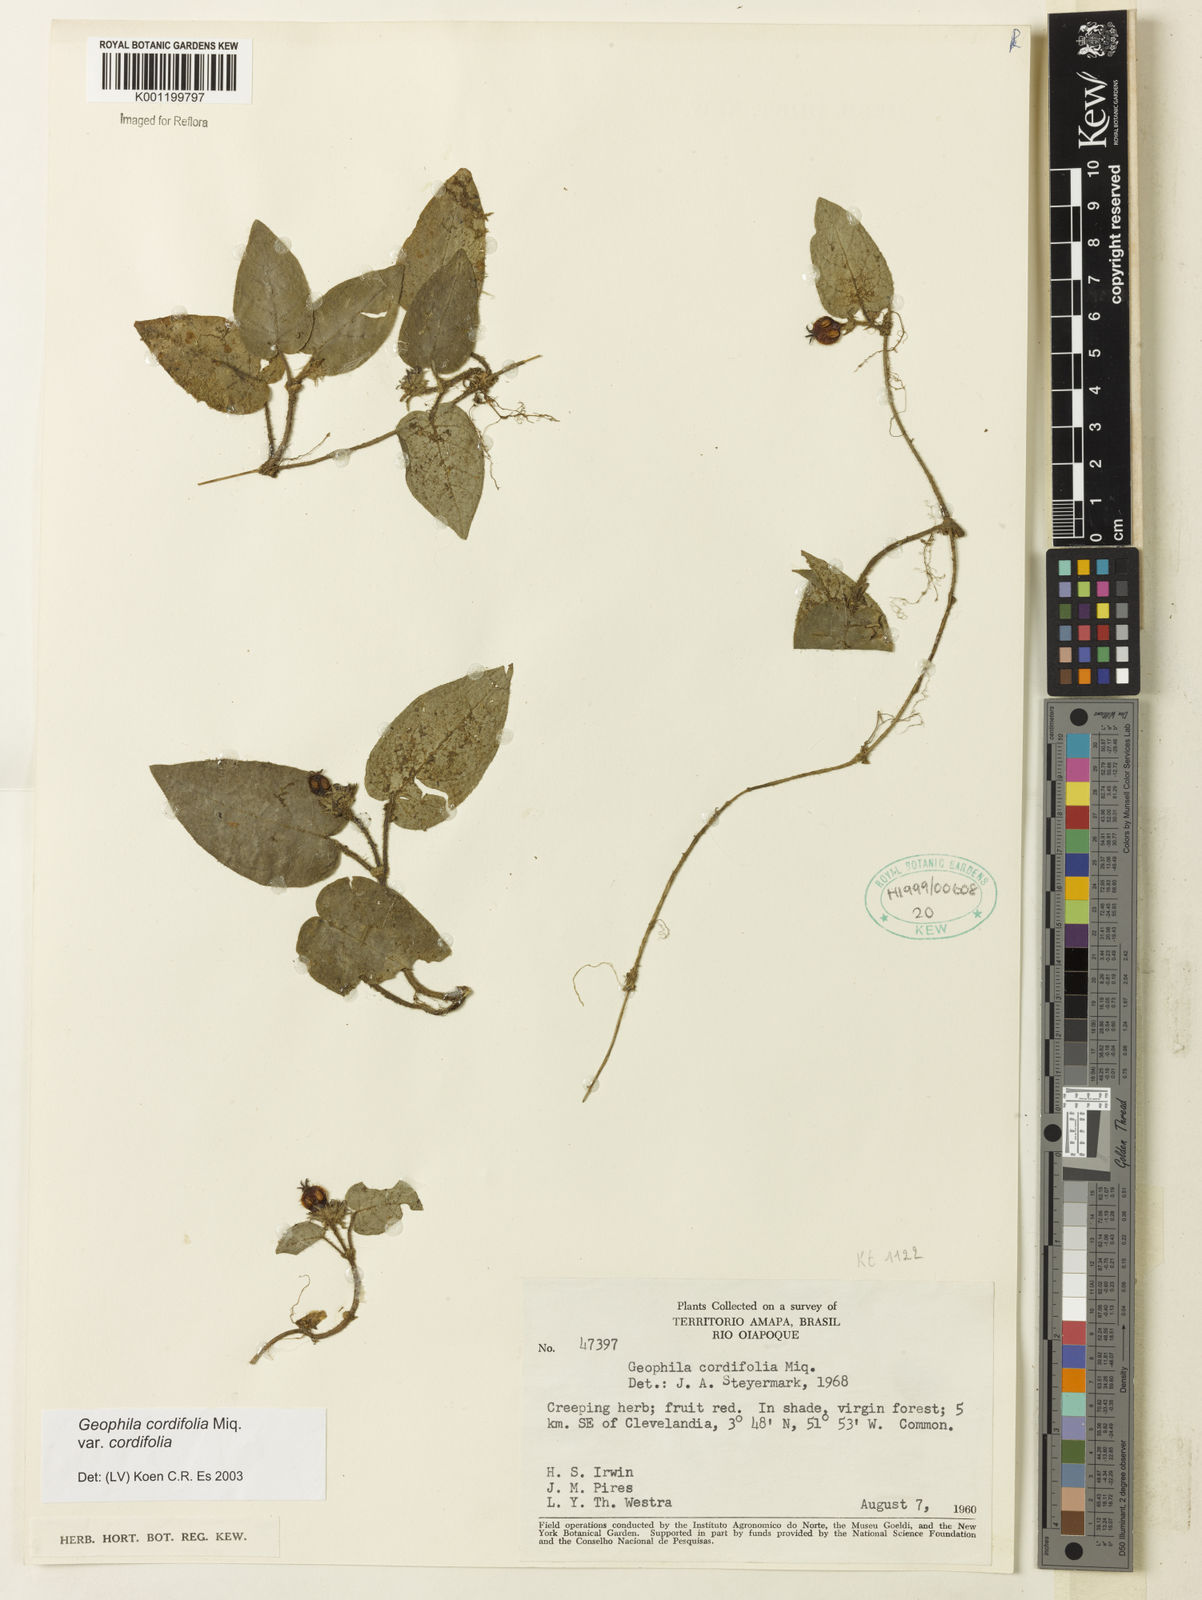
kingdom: Plantae
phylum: Tracheophyta
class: Magnoliopsida
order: Gentianales
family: Rubiaceae
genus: Geophila
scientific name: Geophila cordifolia
